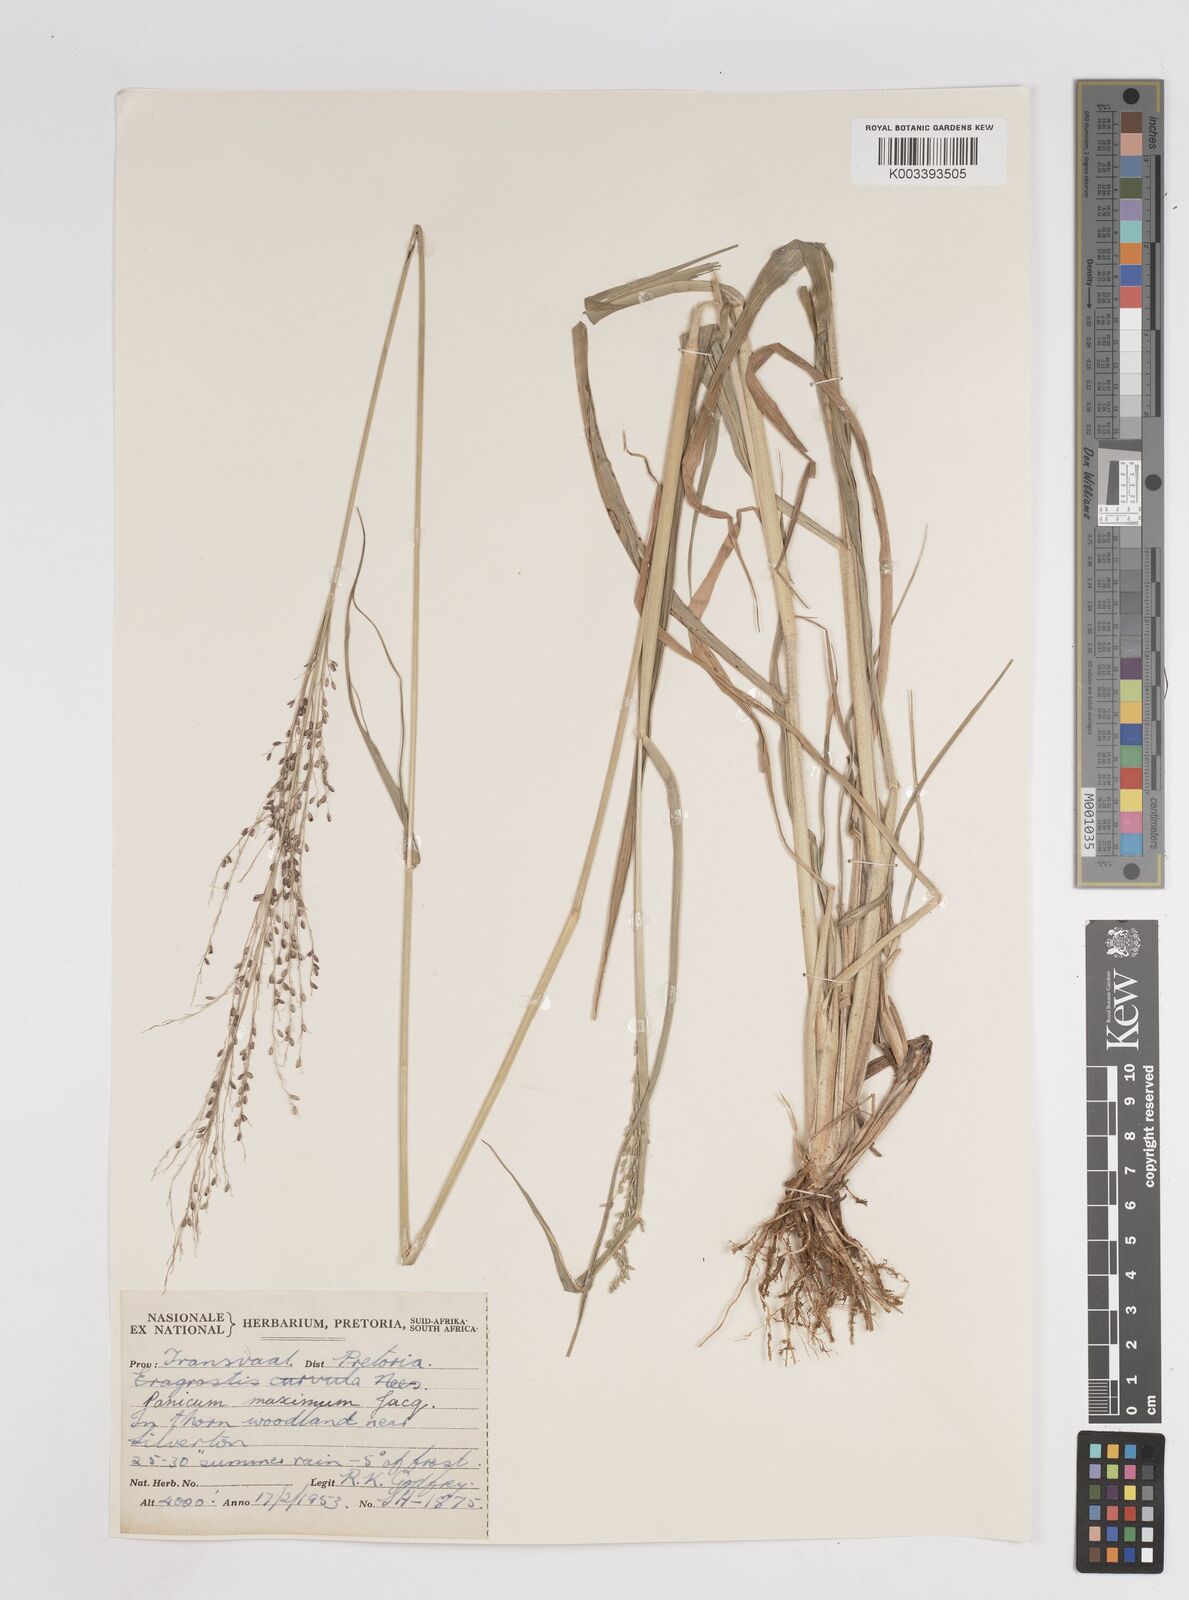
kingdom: Plantae
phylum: Tracheophyta
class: Liliopsida
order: Poales
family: Poaceae
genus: Megathyrsus
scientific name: Megathyrsus maximus
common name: Guineagrass
